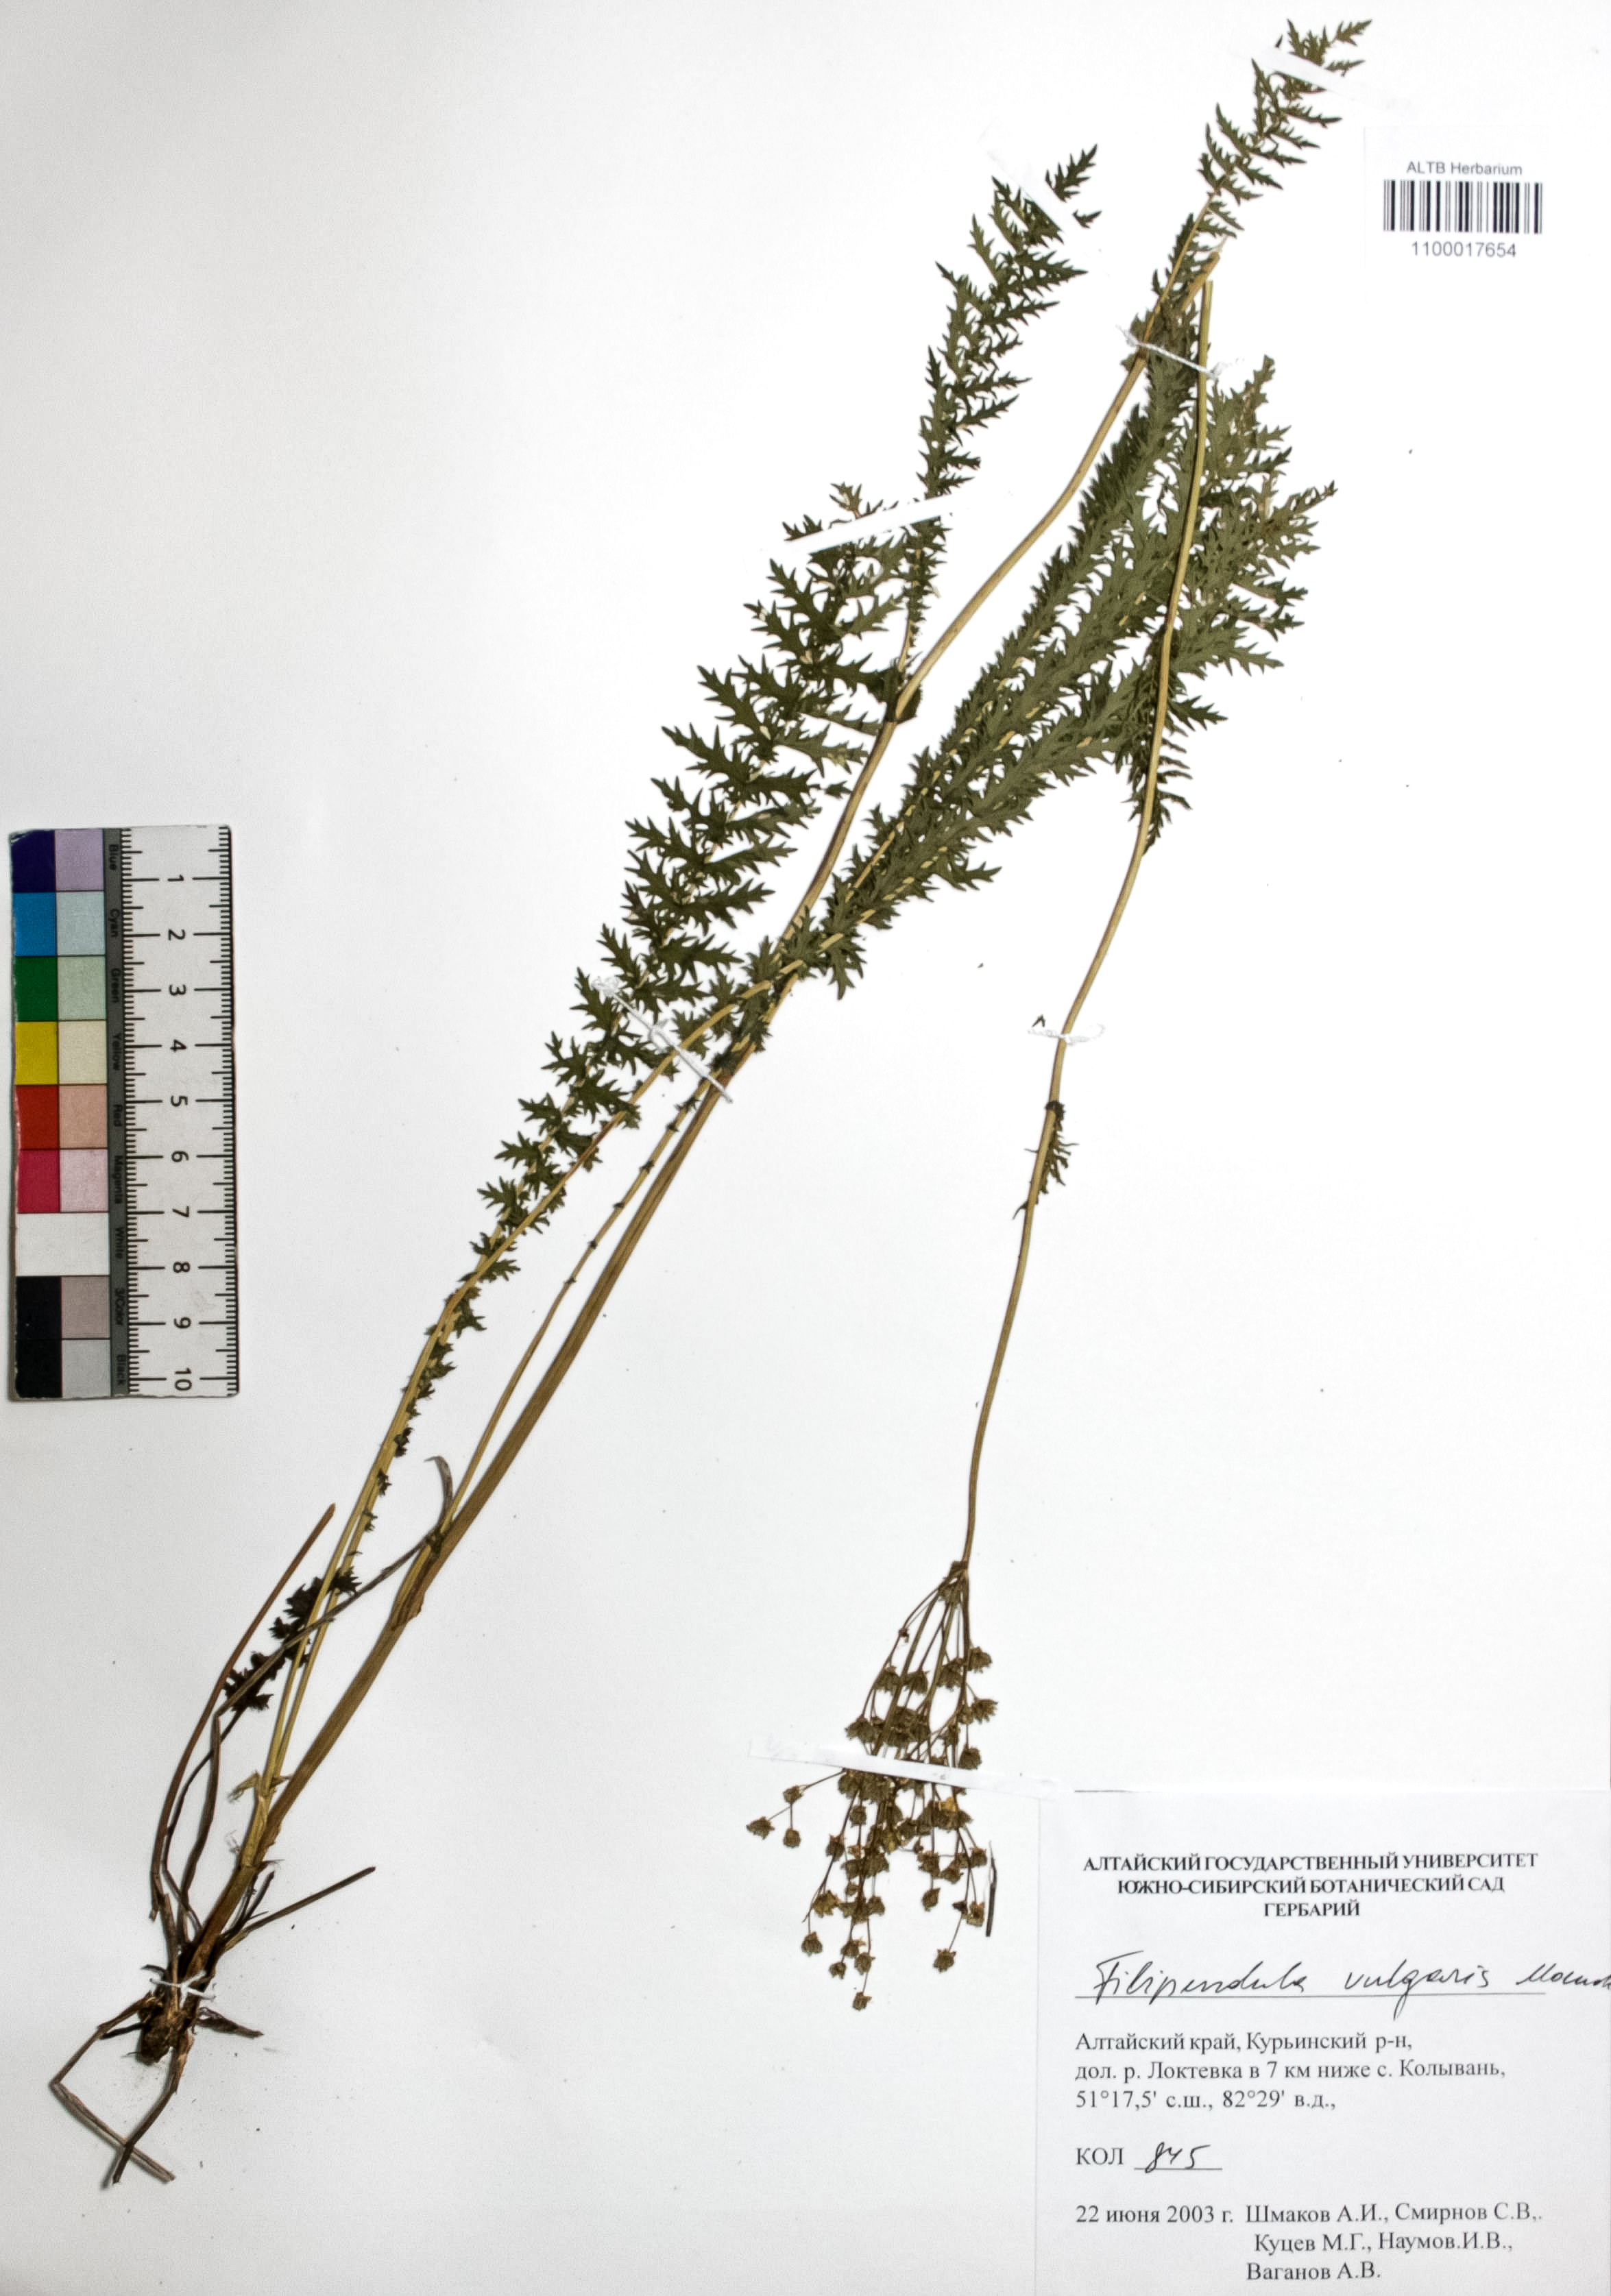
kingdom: Plantae
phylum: Tracheophyta
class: Magnoliopsida
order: Rosales
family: Rosaceae
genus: Filipendula
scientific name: Filipendula vulgaris
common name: Dropwort
